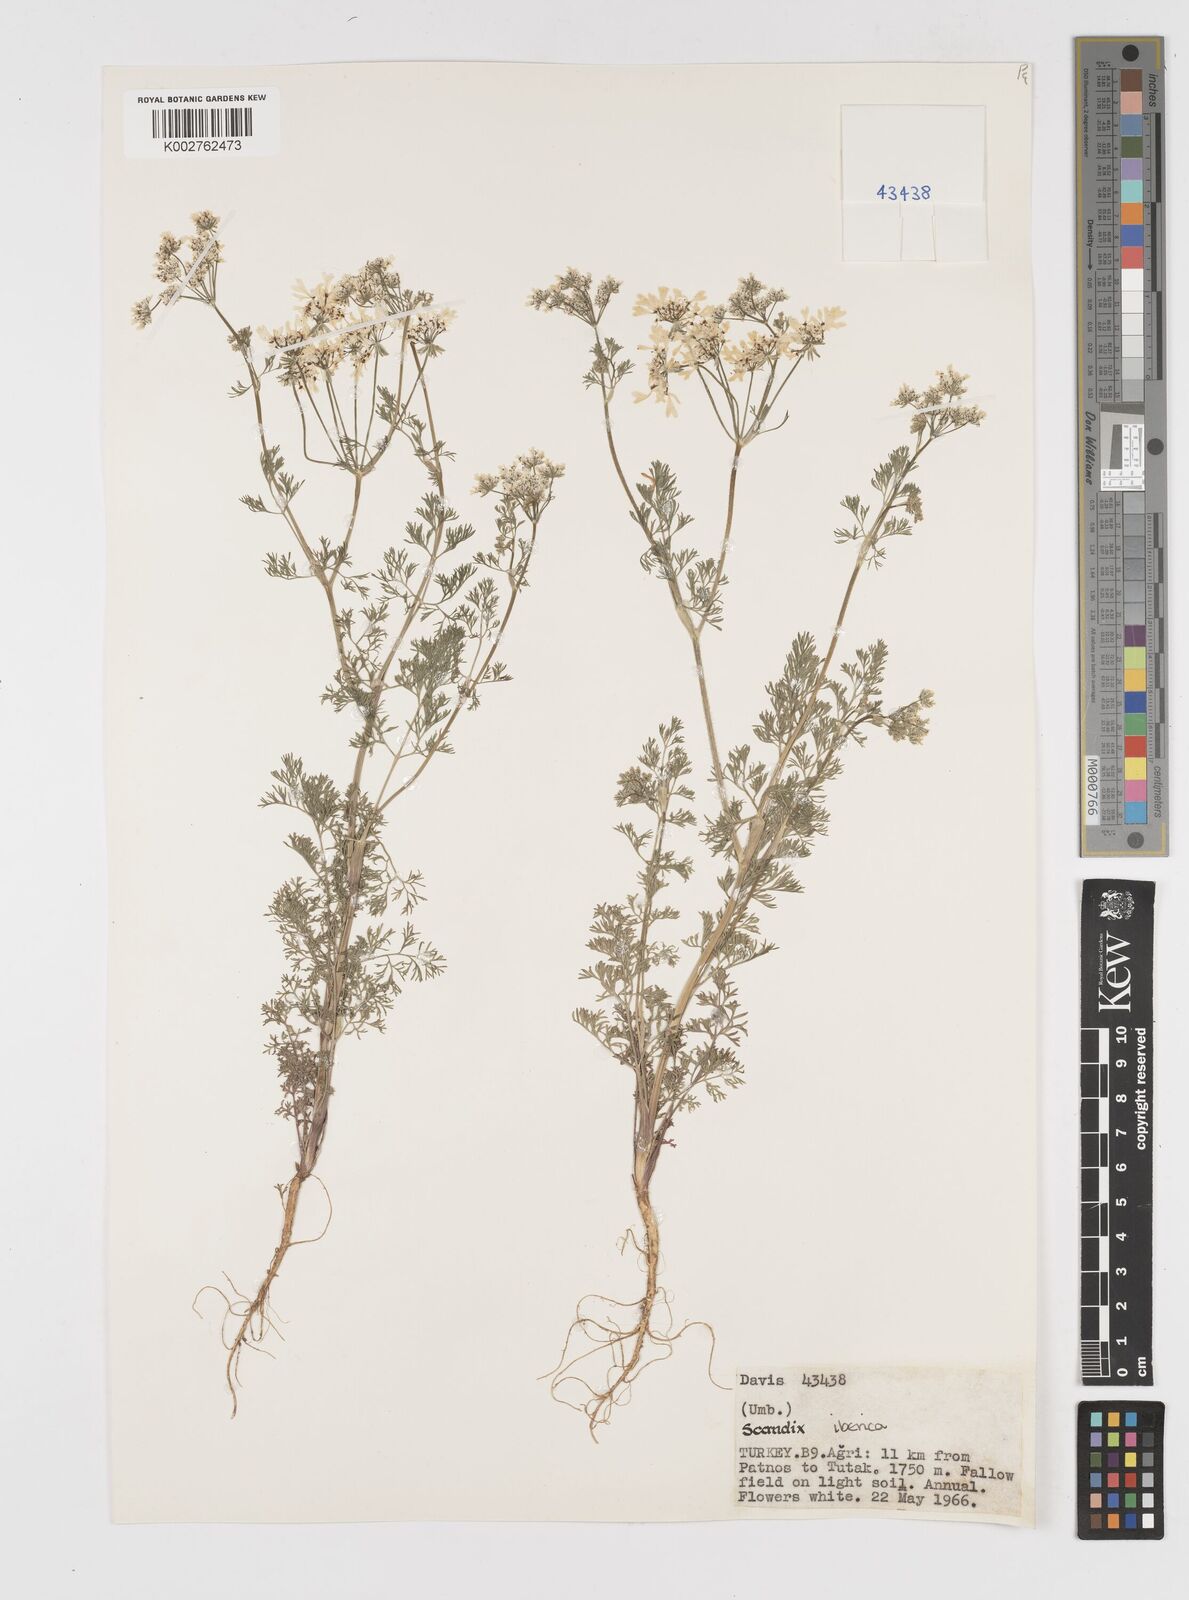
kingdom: Plantae
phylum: Tracheophyta
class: Magnoliopsida
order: Apiales
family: Apiaceae
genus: Scandix
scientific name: Scandix iberica
